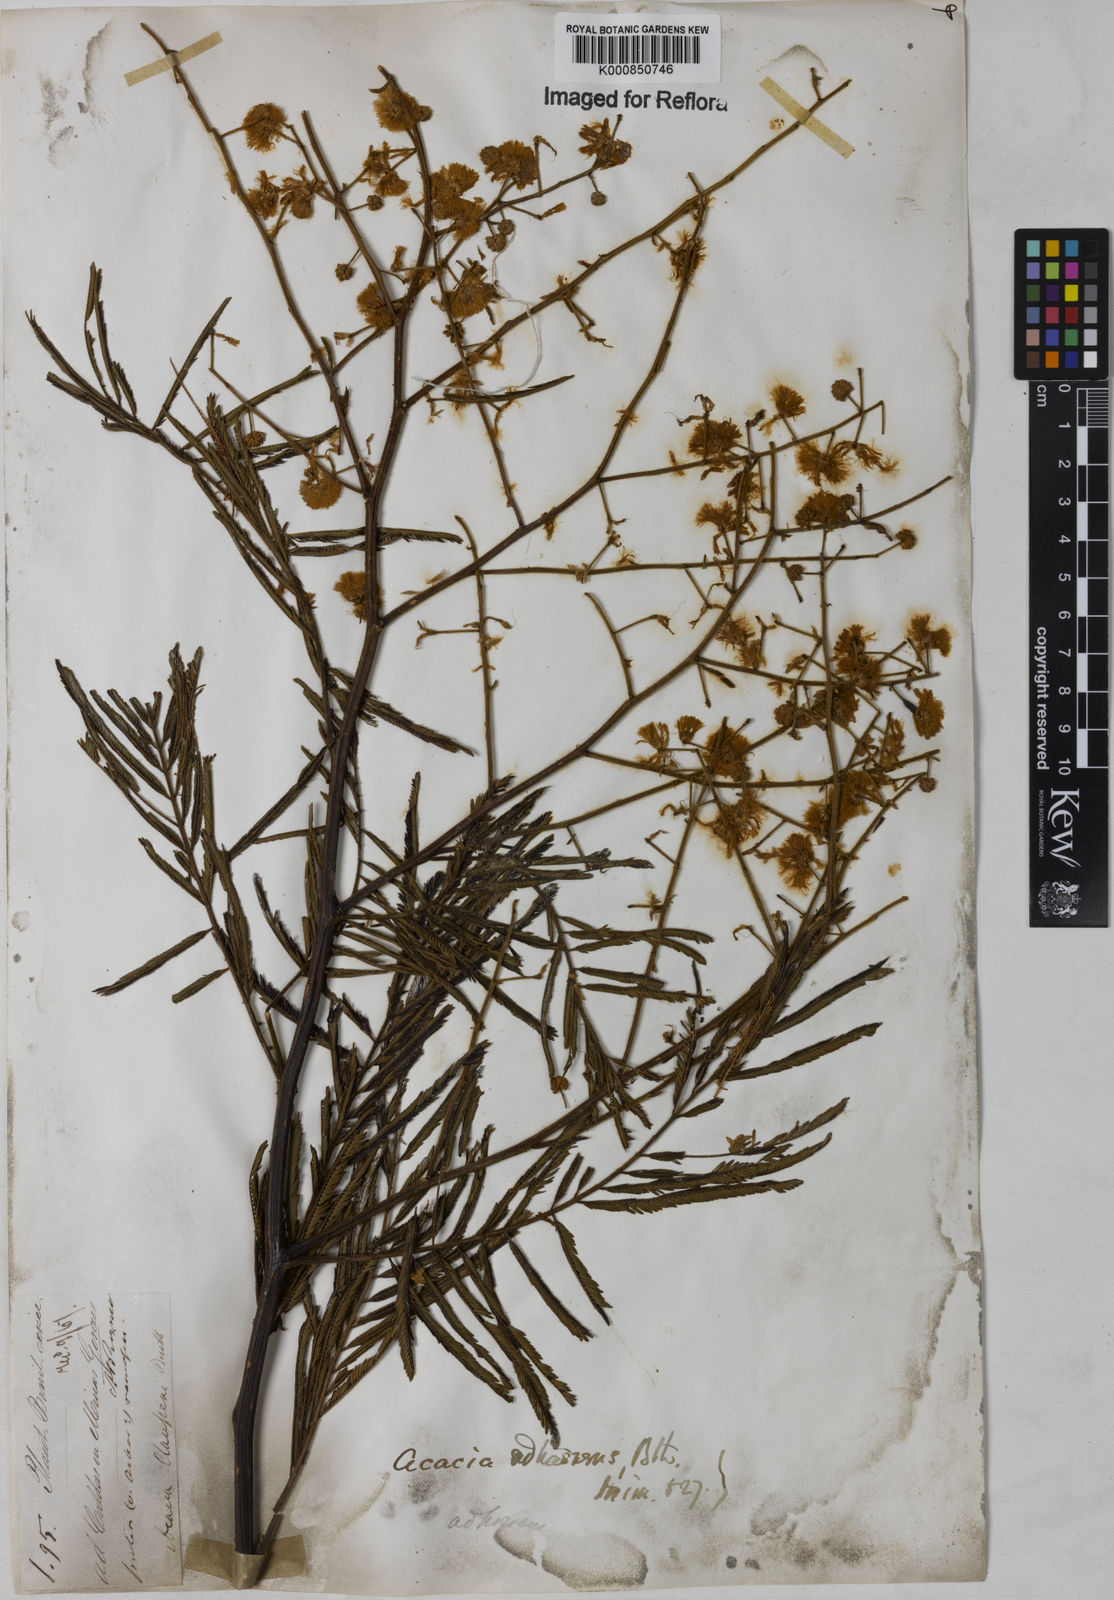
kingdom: Plantae
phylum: Tracheophyta
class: Magnoliopsida
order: Fabales
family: Fabaceae
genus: Senegalia
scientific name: Senegalia martiusiana
